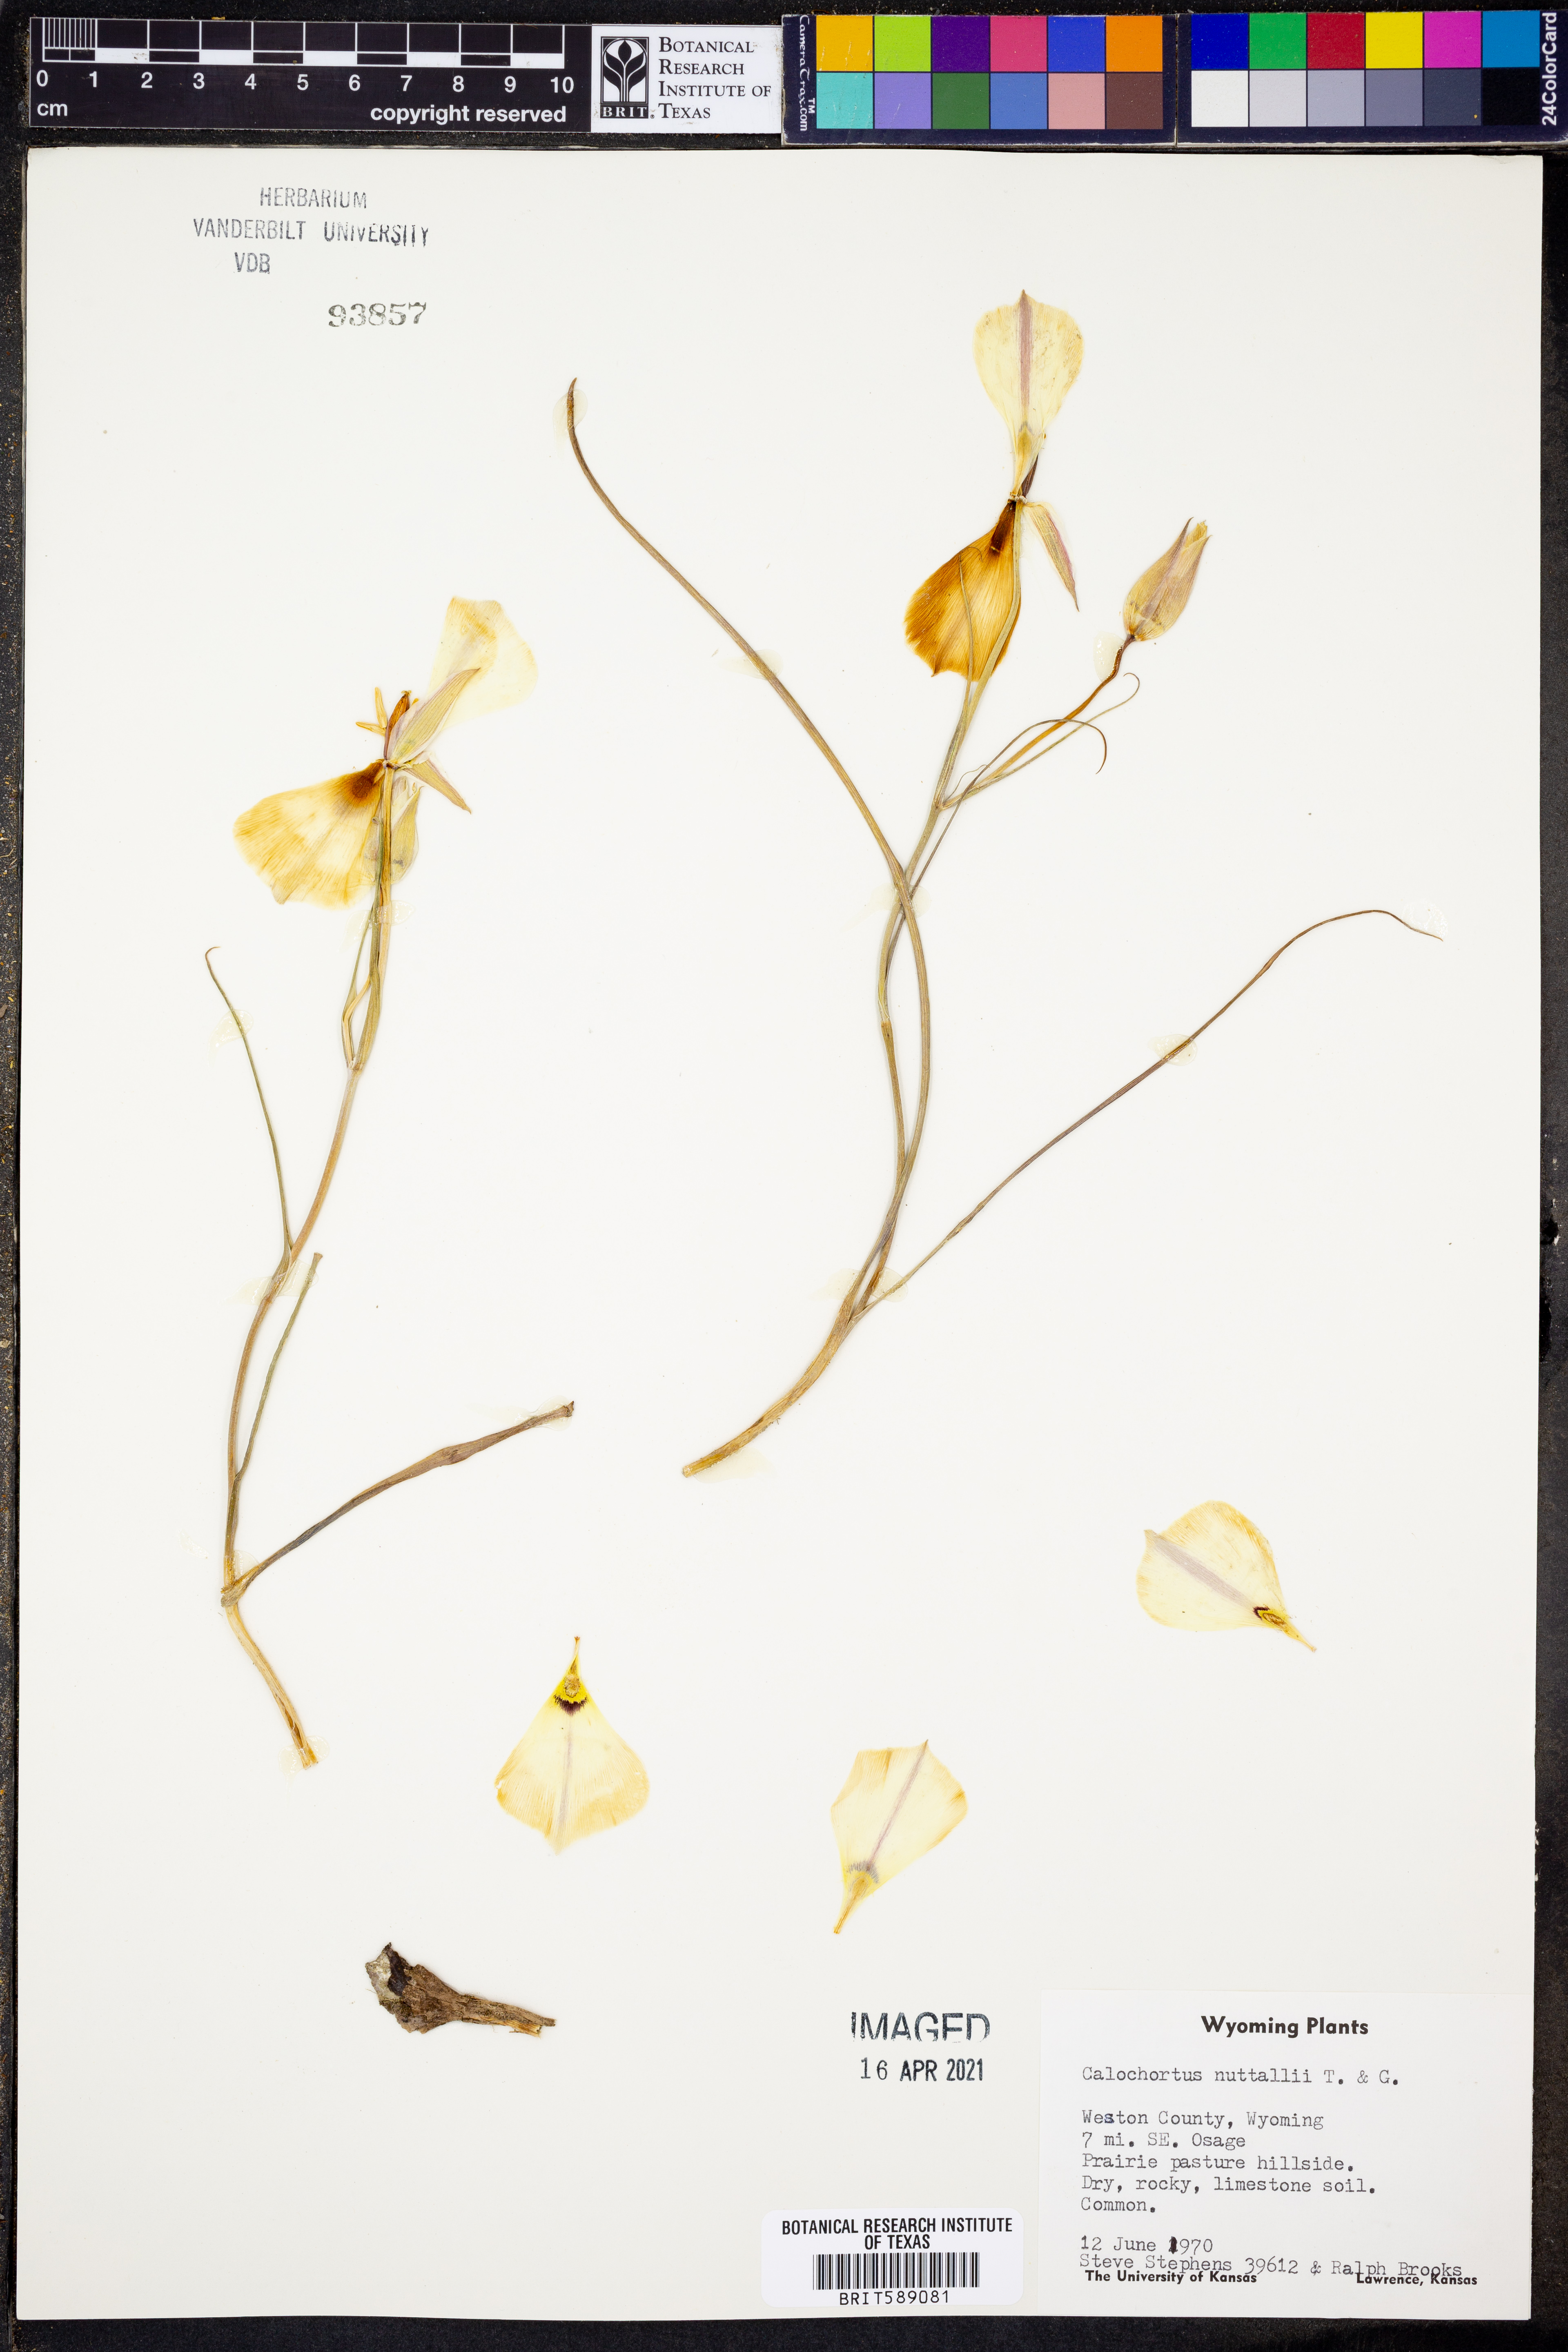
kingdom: Plantae
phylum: Tracheophyta
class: Liliopsida
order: Liliales
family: Liliaceae
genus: Calochortus
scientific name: Calochortus nuttallii
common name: Sego-lily
